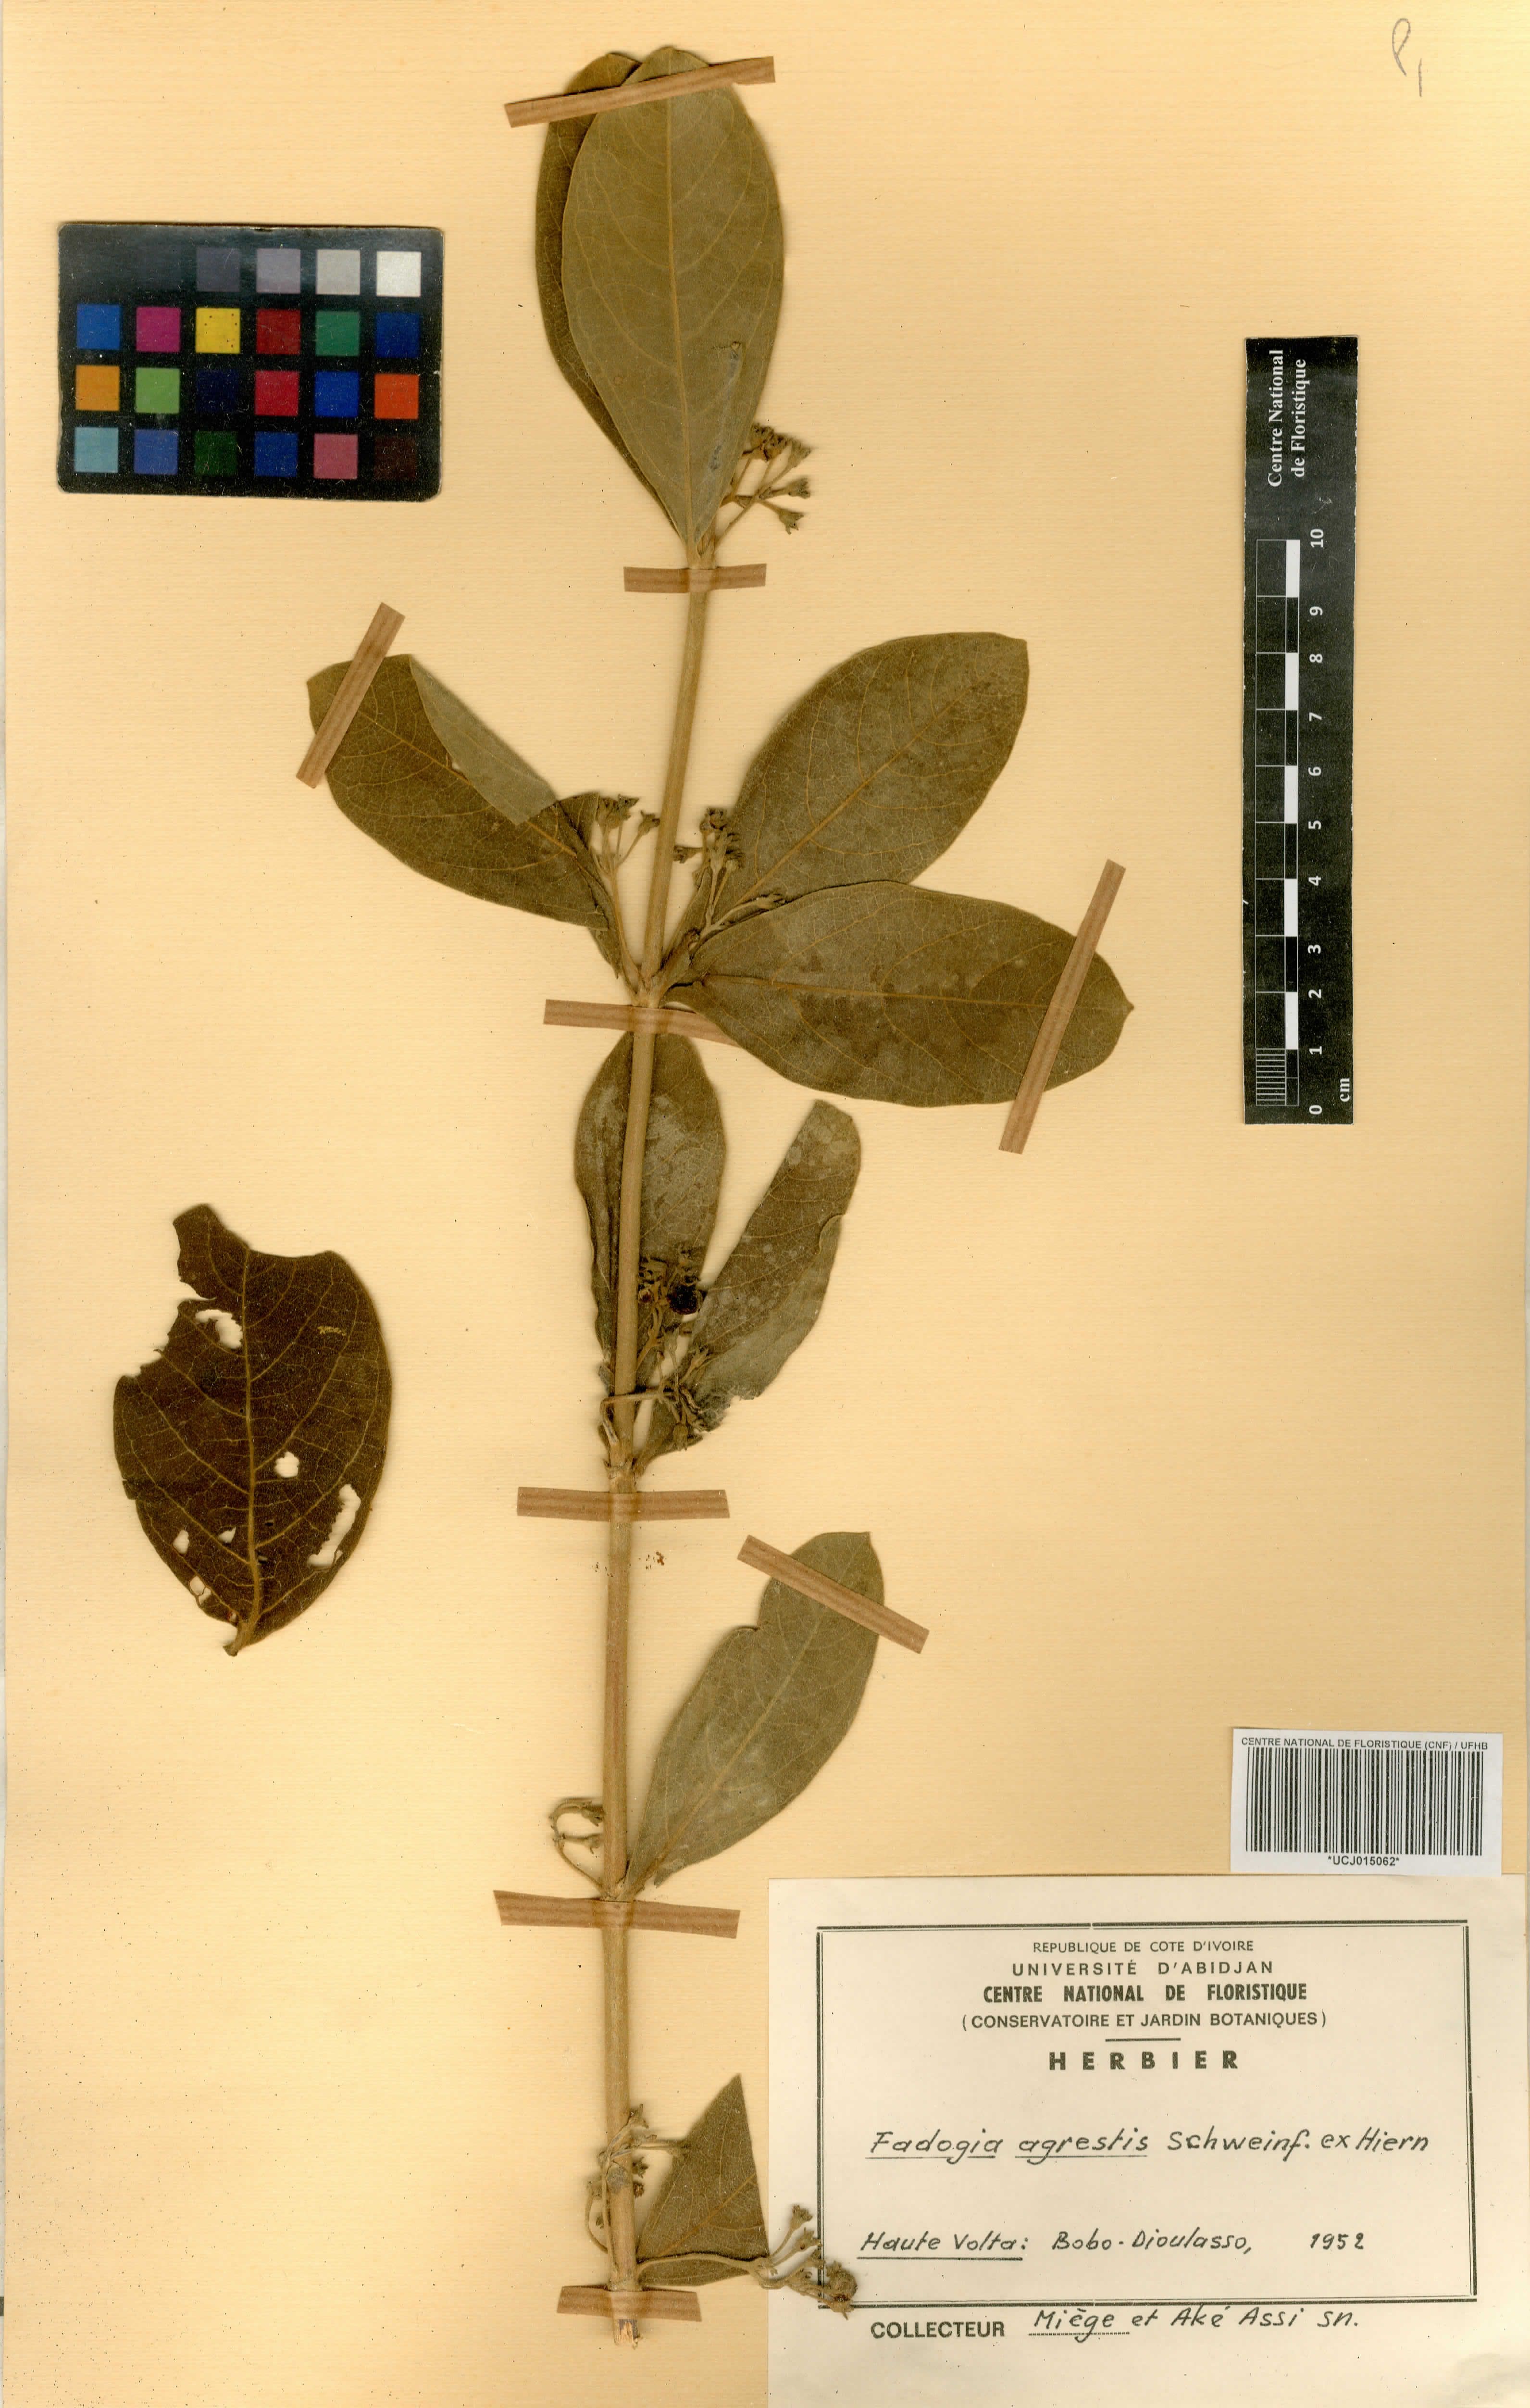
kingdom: Plantae
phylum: Tracheophyta
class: Magnoliopsida
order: Gentianales
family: Rubiaceae
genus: Vangueria
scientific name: Vangueria agrestis
